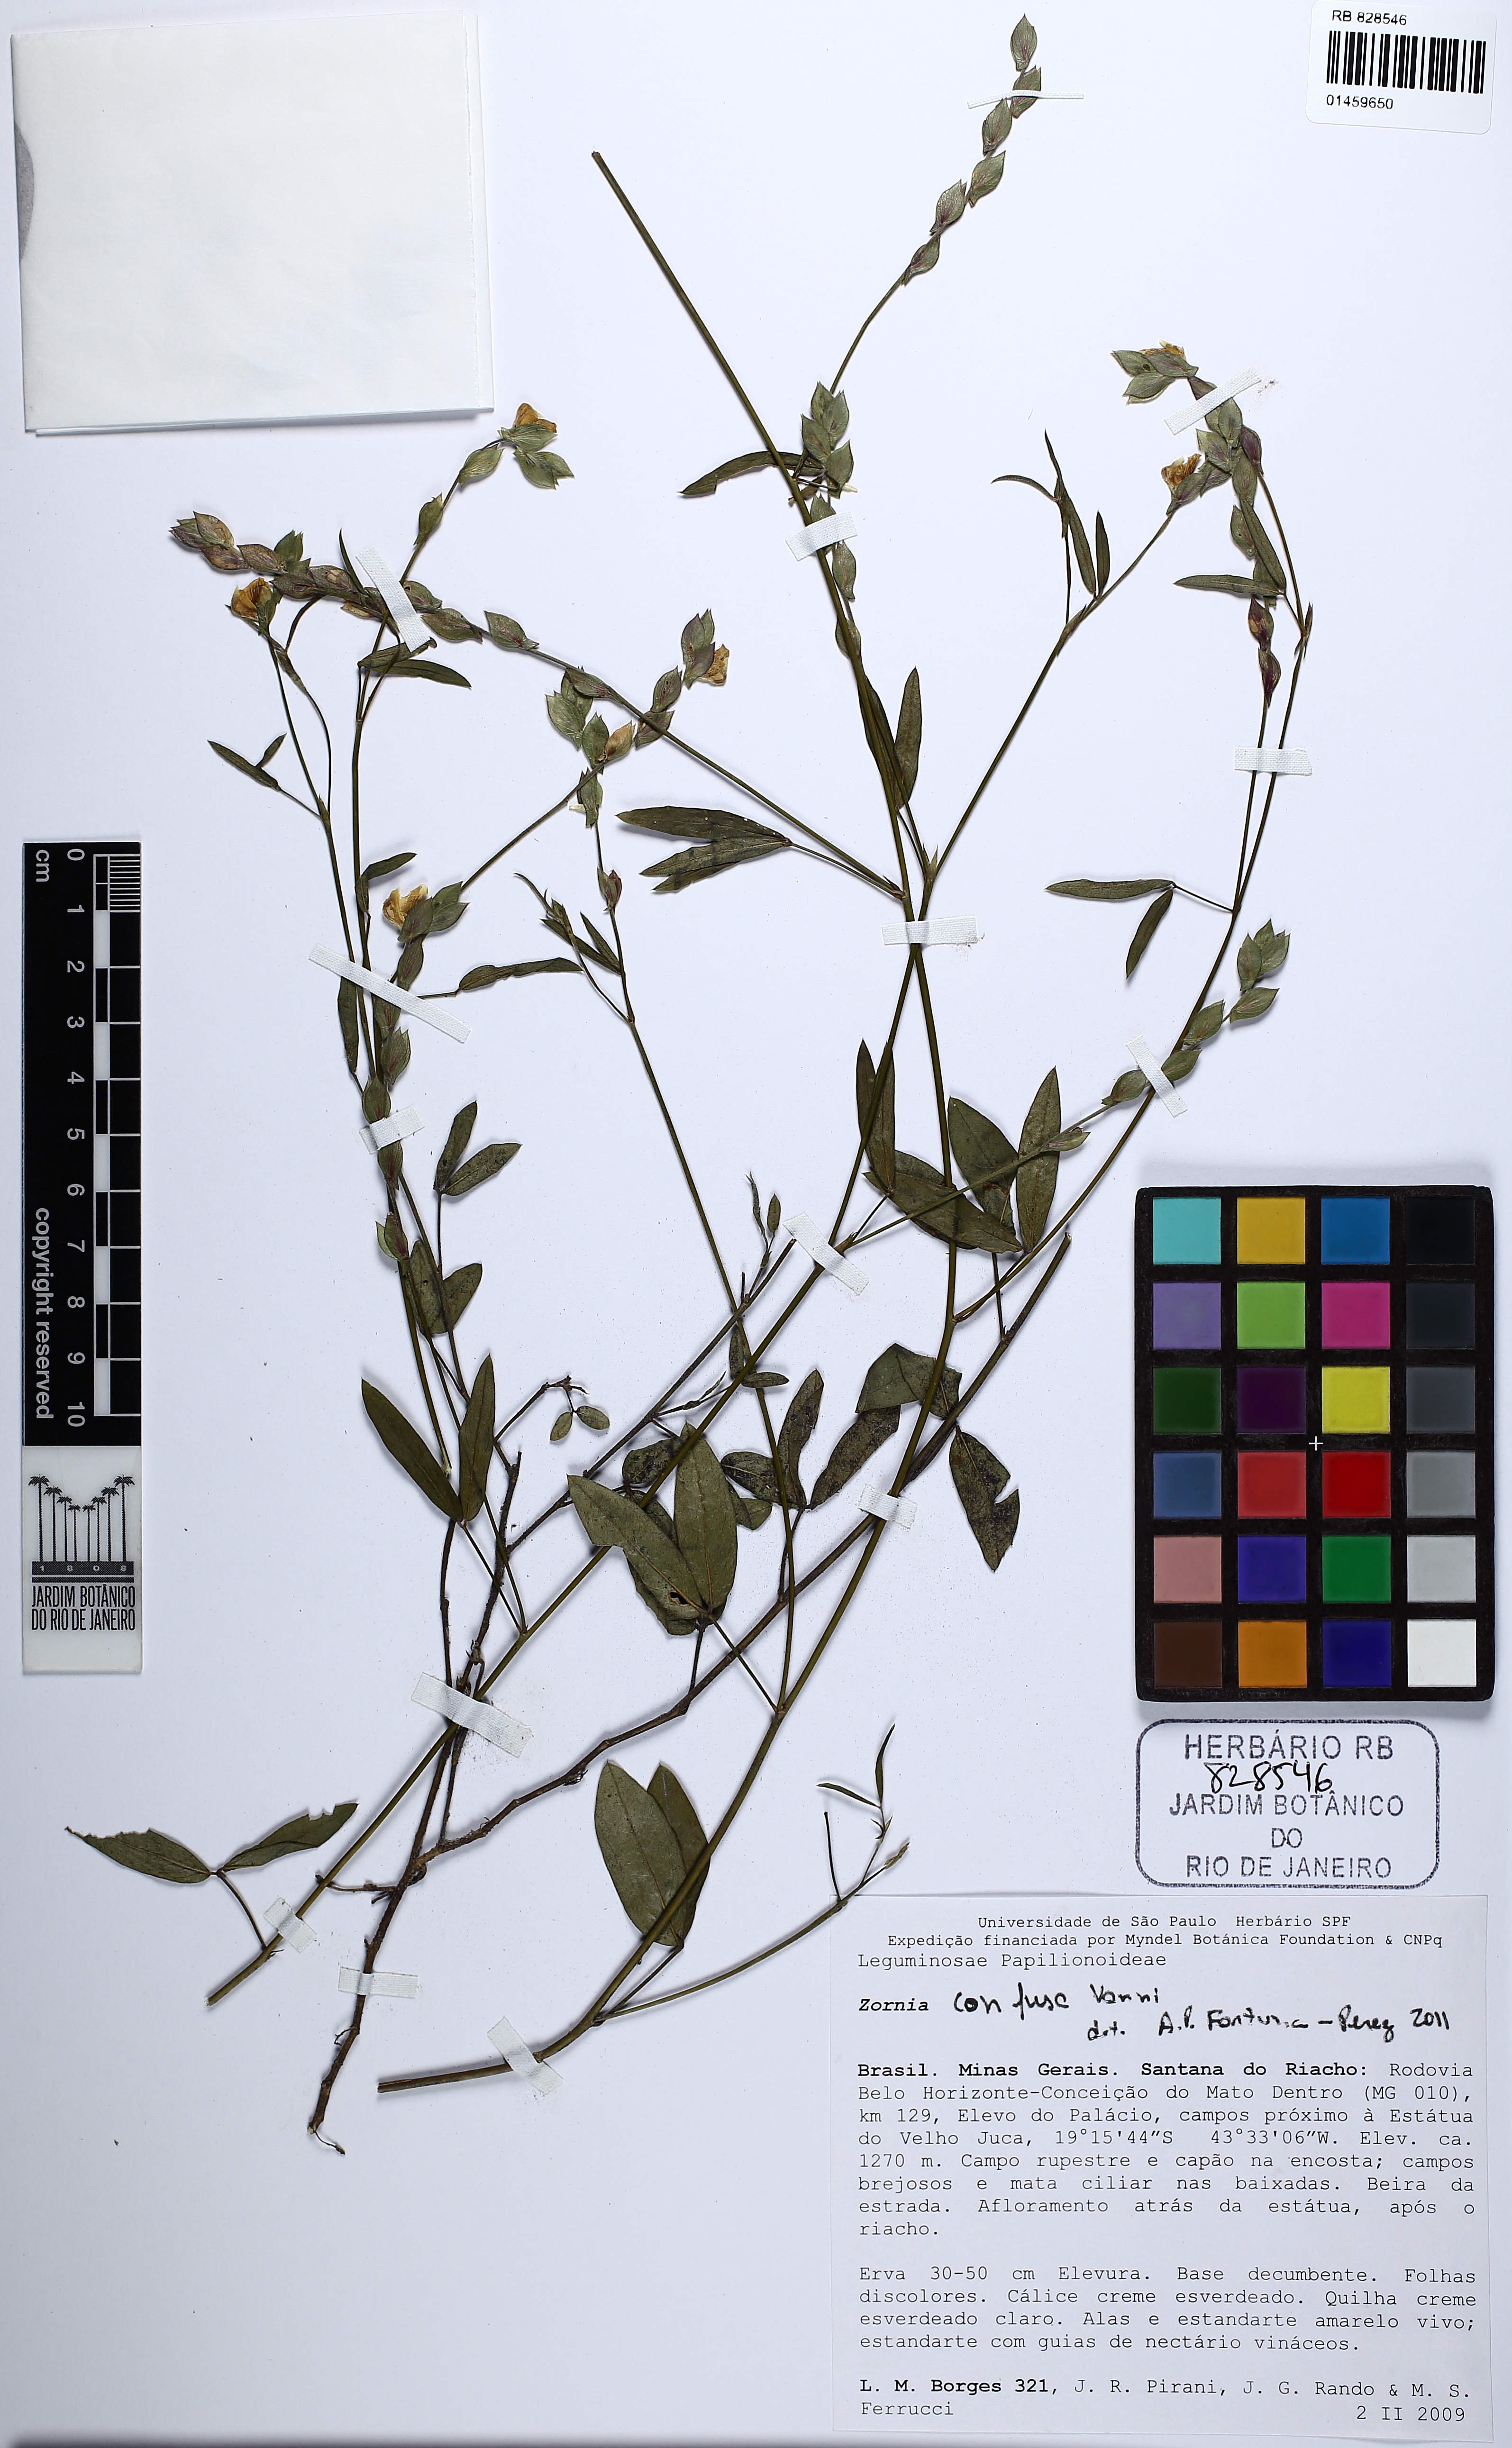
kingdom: Plantae
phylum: Tracheophyta
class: Magnoliopsida
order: Fabales
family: Fabaceae
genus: Zornia
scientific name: Zornia confusa
